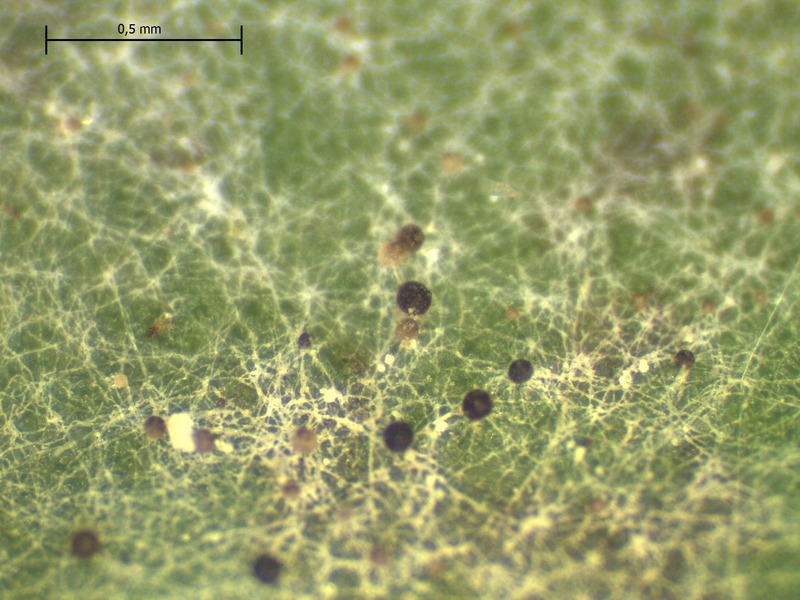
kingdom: Fungi
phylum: Ascomycota
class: Leotiomycetes
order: Helotiales
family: Erysiphaceae
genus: Erysiphe
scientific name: Erysiphe vanbruntiana
